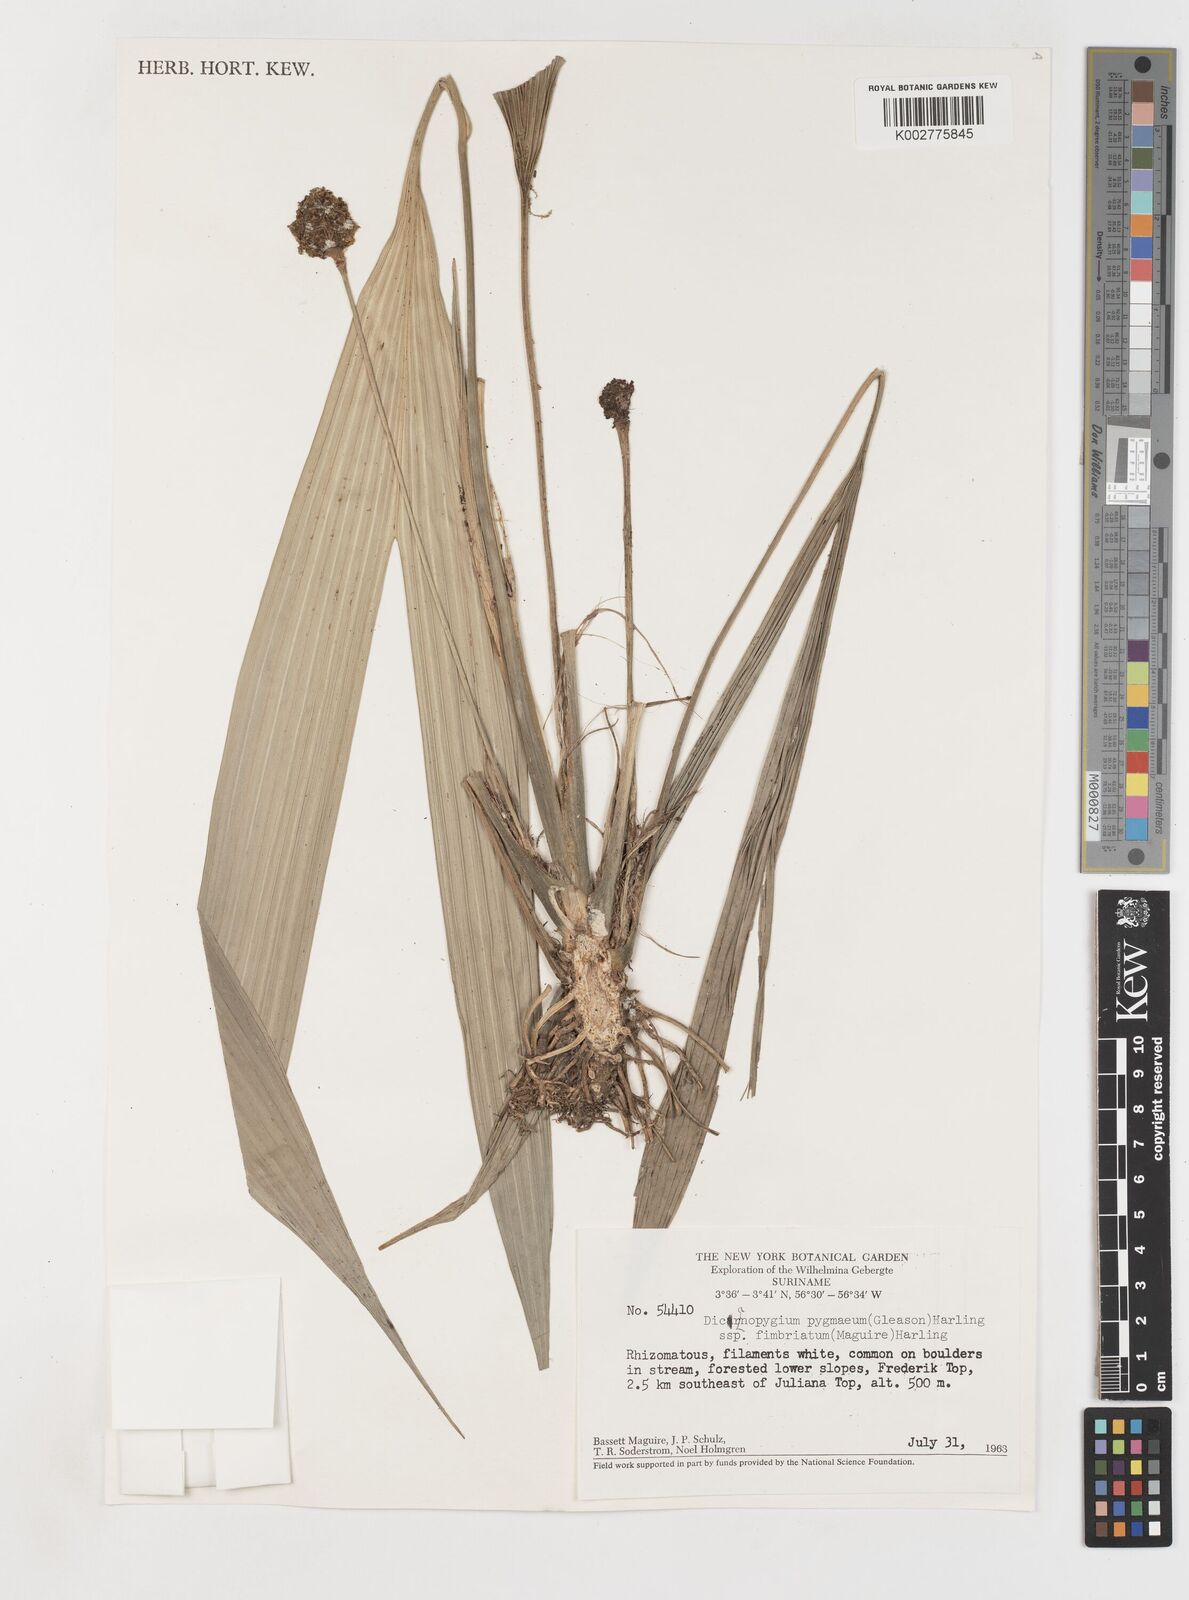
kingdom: Plantae
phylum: Tracheophyta
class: Liliopsida
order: Pandanales
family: Cyclanthaceae
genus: Dicranopygium
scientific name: Dicranopygium pygmaeum
